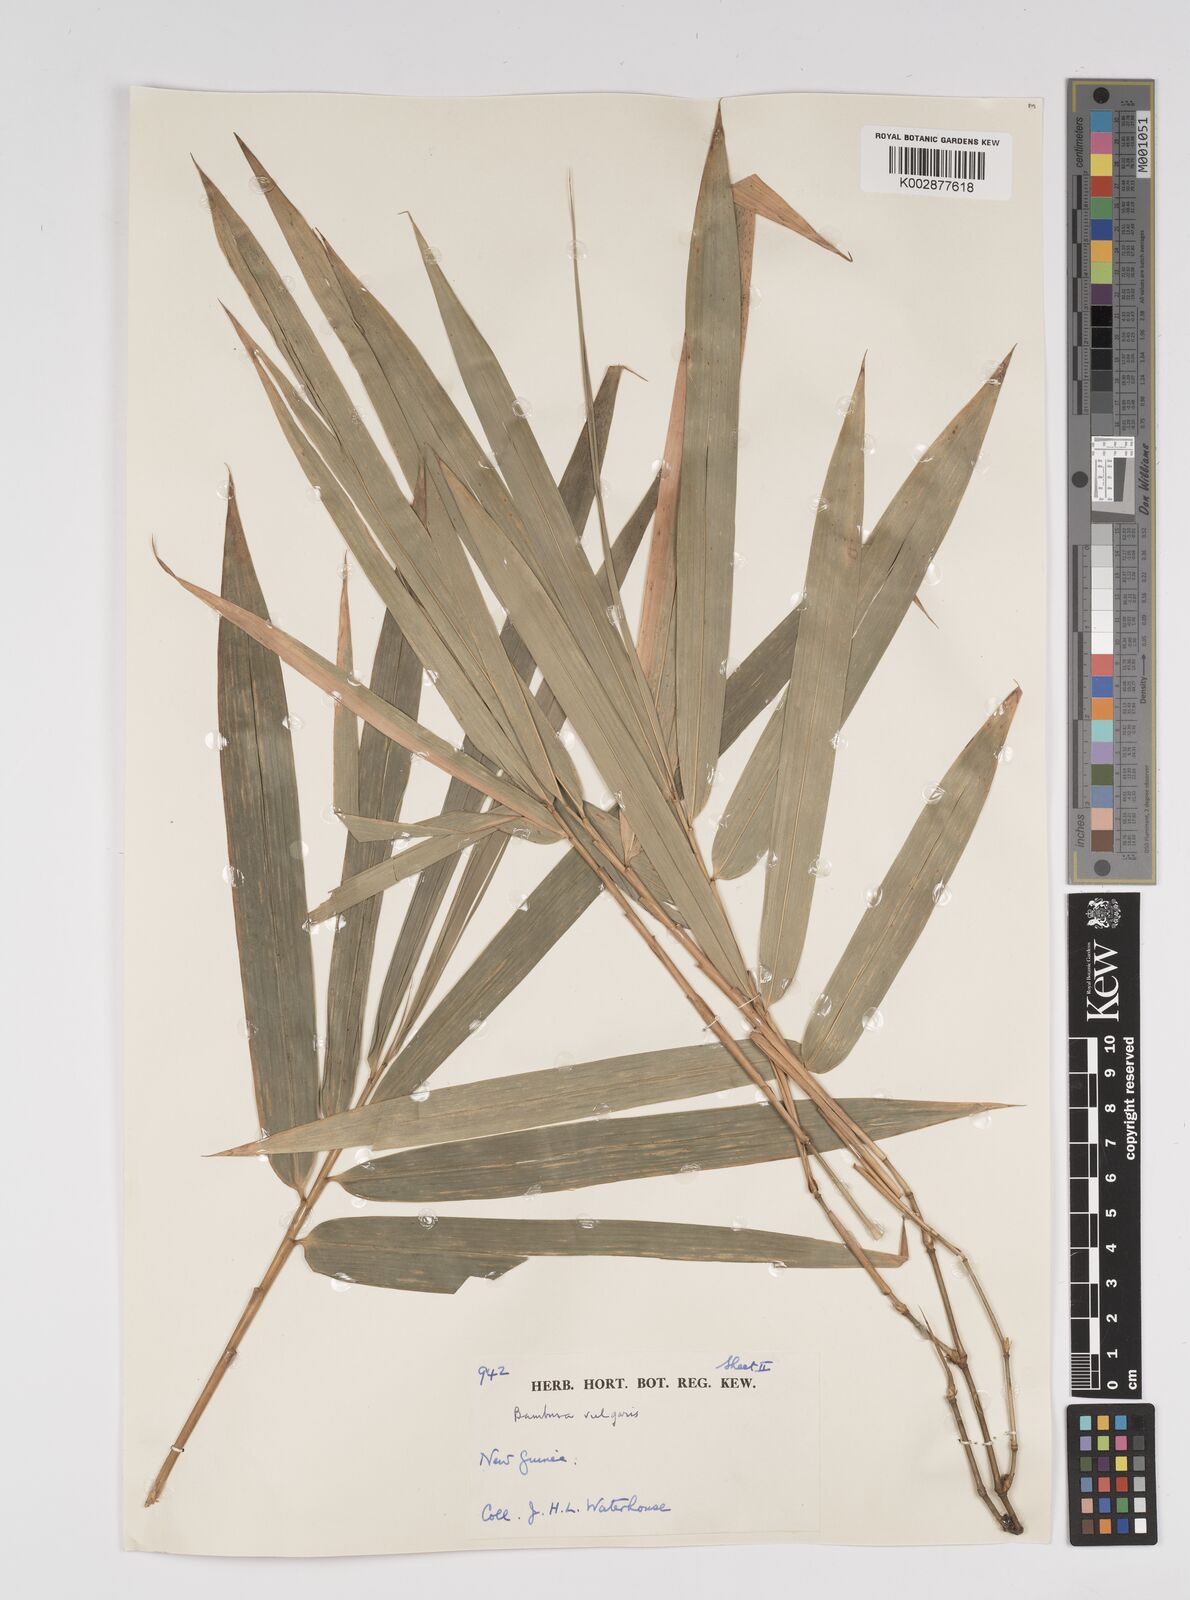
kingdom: Plantae
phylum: Tracheophyta
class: Liliopsida
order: Poales
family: Poaceae
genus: Bambusa
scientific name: Bambusa balcooa
